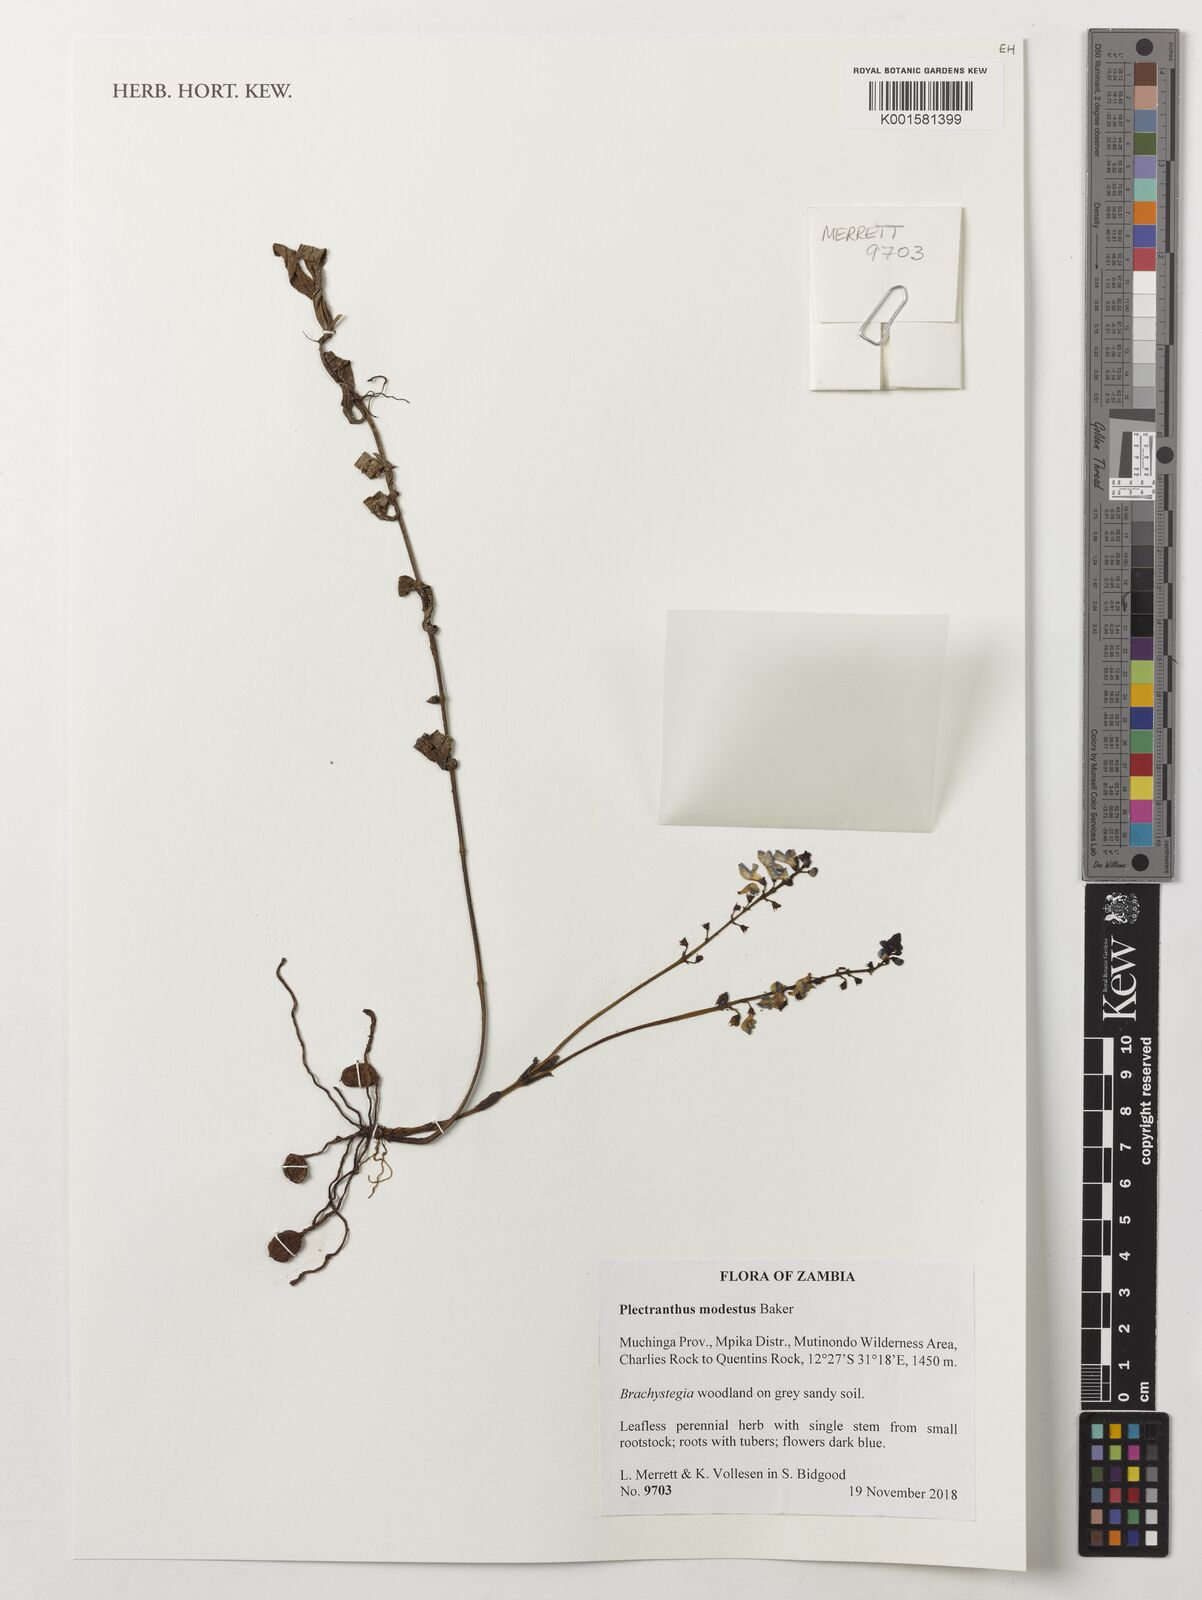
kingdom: Plantae
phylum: Tracheophyta
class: Magnoliopsida
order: Lamiales
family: Lamiaceae
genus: Coleus
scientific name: Coleus modestus
